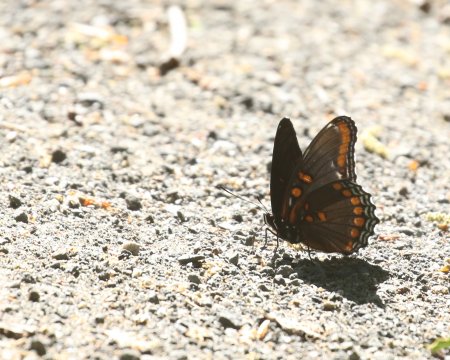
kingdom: Animalia
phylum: Arthropoda
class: Insecta
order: Lepidoptera
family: Nymphalidae
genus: Limenitis
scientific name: Limenitis arthemis
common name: Red-spotted Admiral
